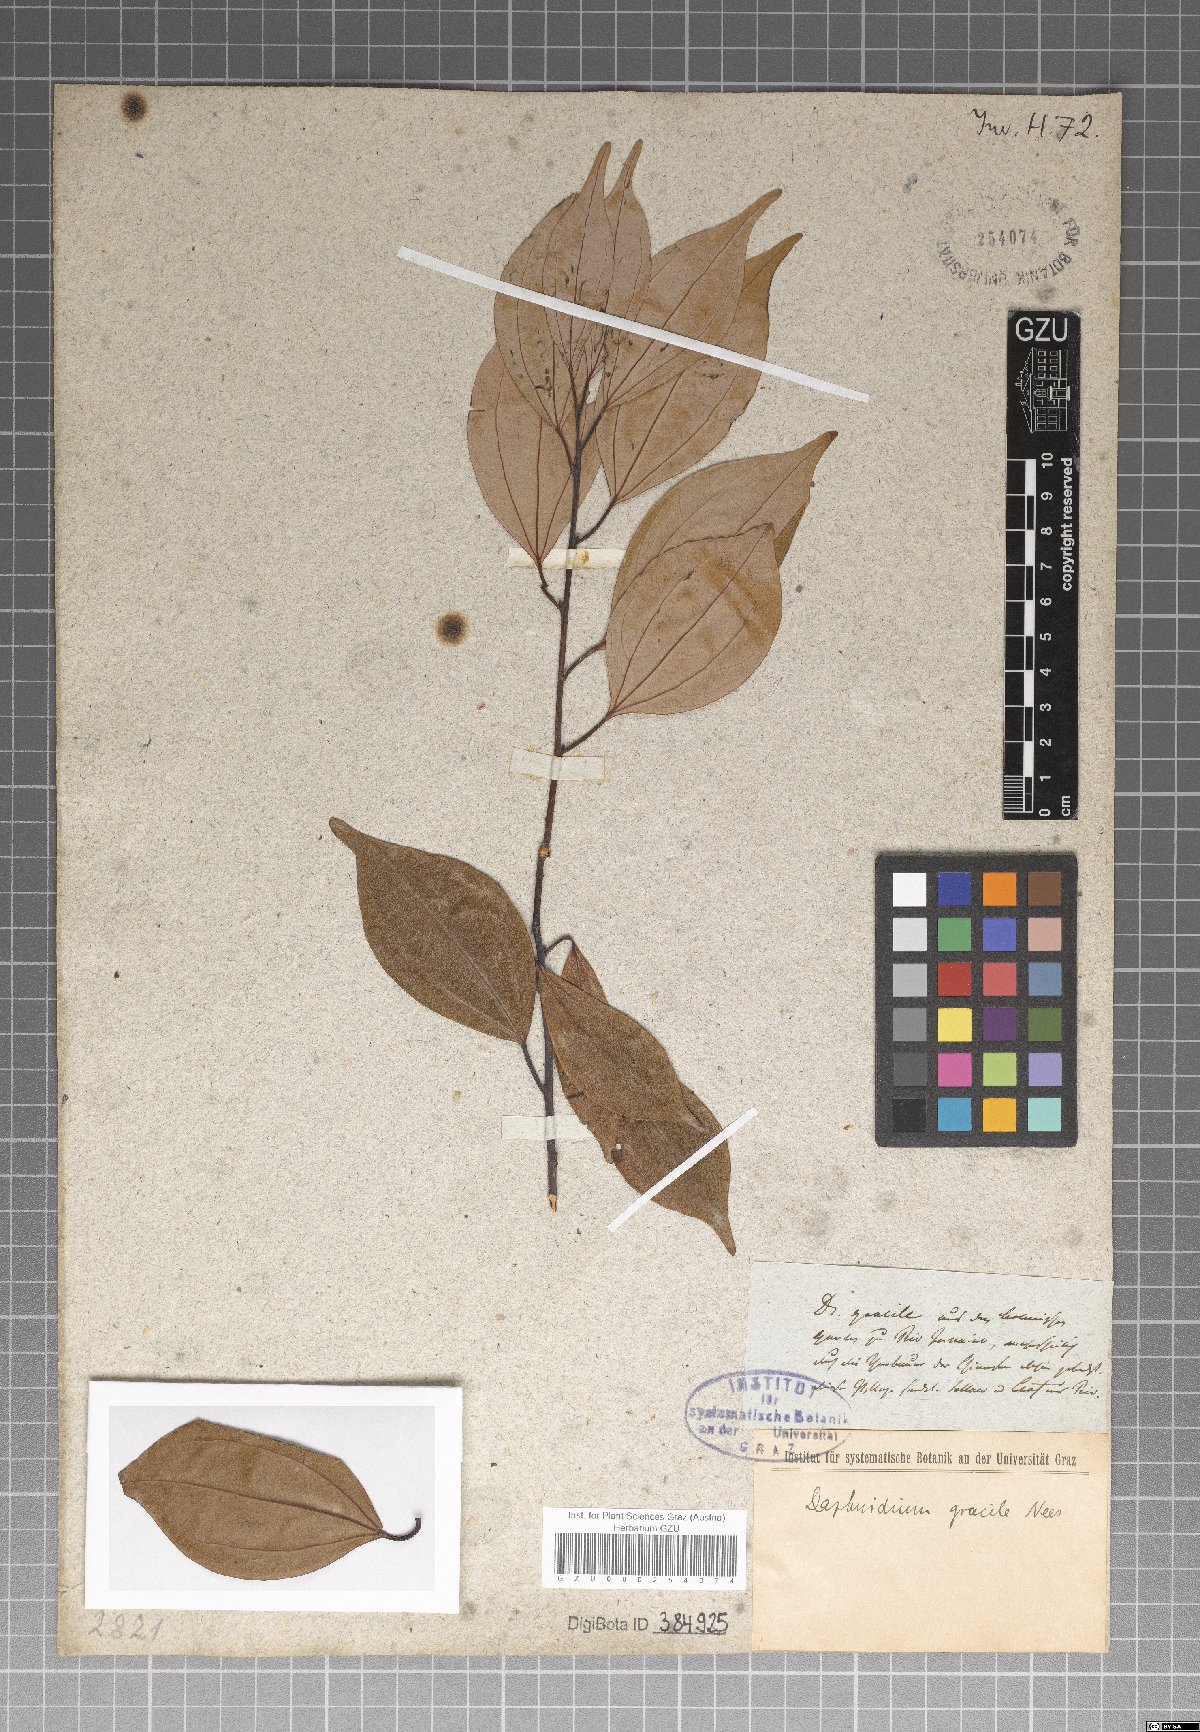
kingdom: Plantae
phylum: Tracheophyta
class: Magnoliopsida
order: Laurales
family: Lauraceae
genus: Cinnamomum
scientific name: Cinnamomum culitlawan
